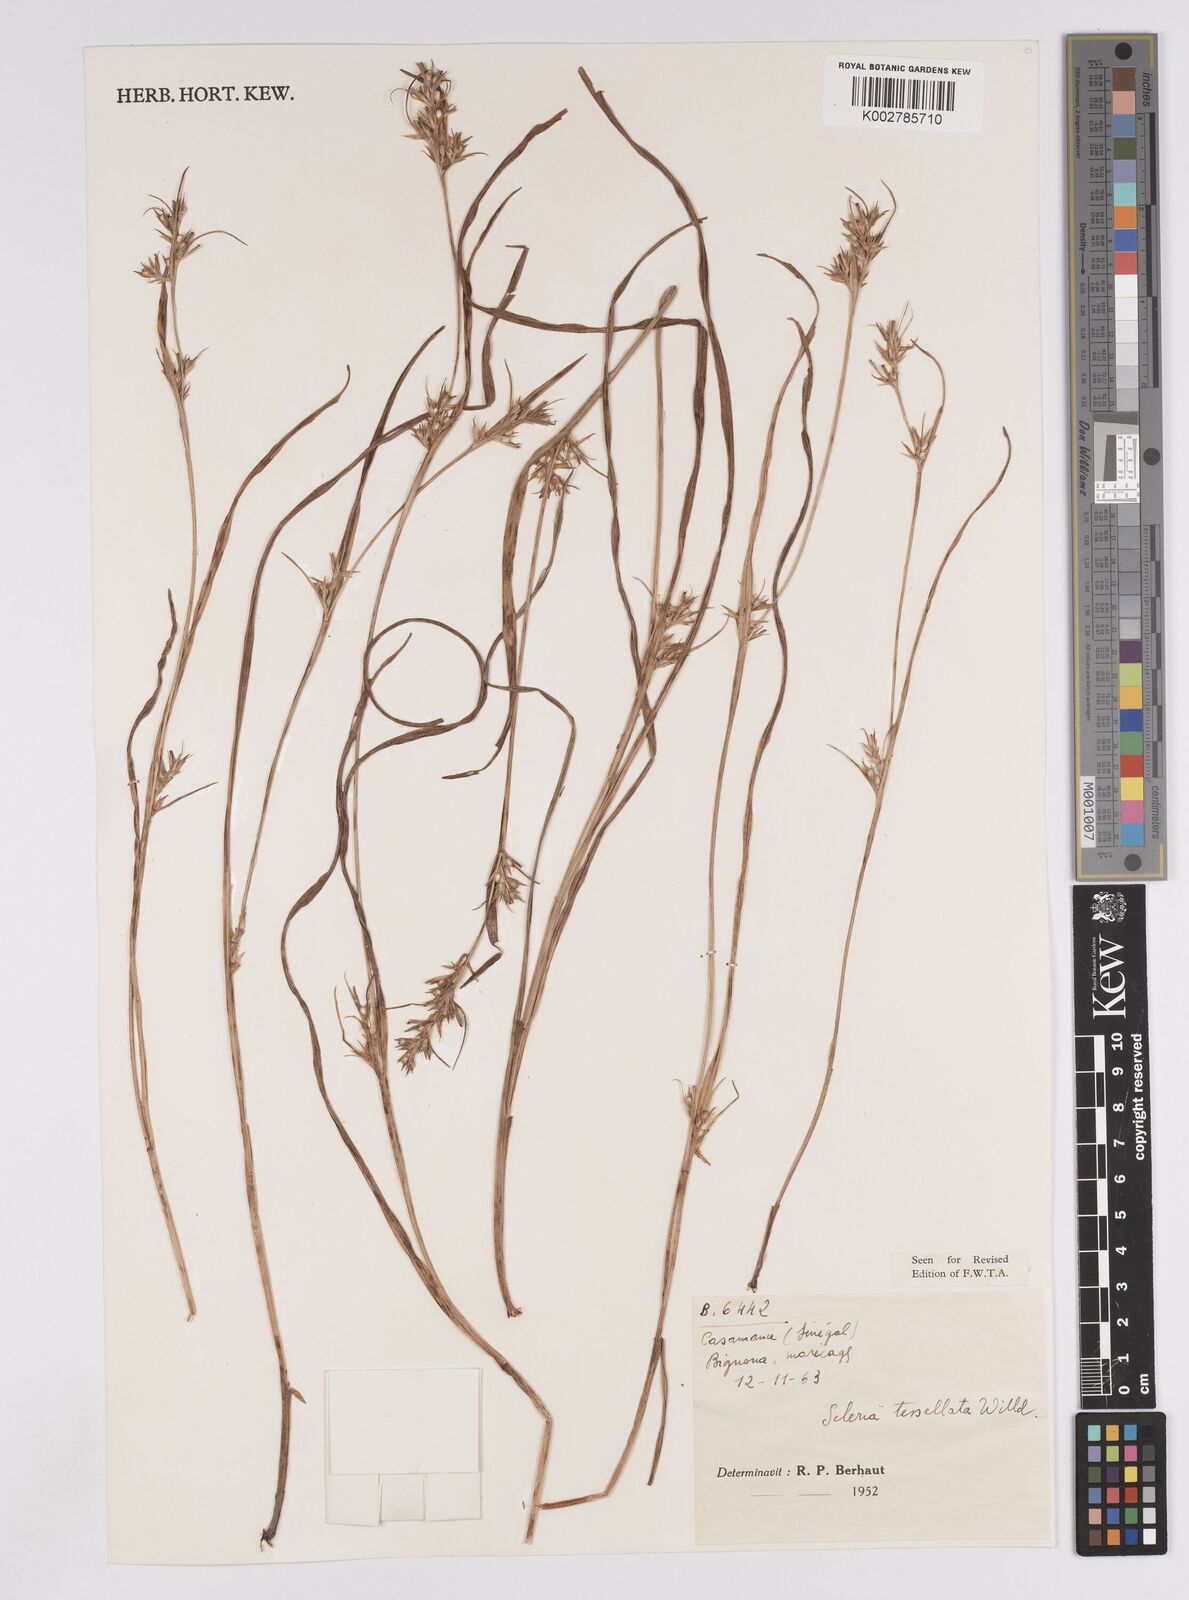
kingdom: Plantae
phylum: Tracheophyta
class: Liliopsida
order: Poales
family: Cyperaceae
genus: Scleria
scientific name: Scleria tessellata
